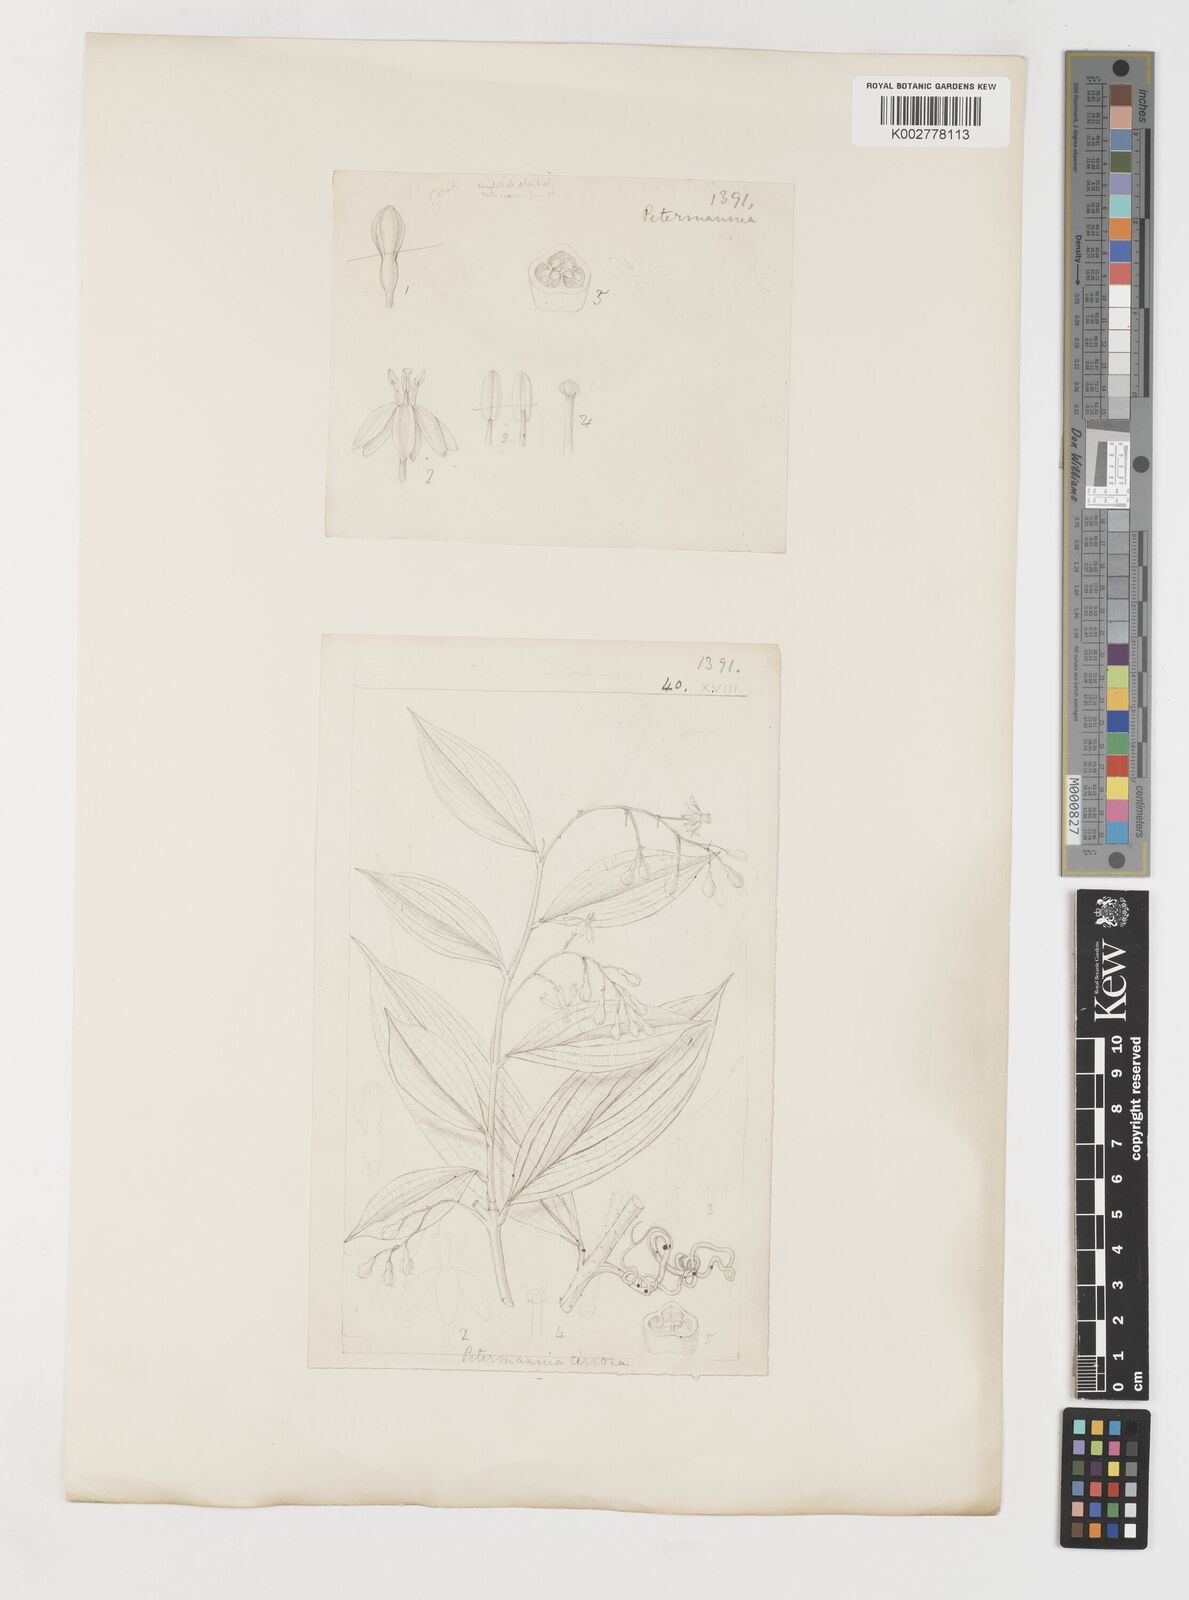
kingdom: Plantae
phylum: Tracheophyta
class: Liliopsida
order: Liliales
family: Petermanniaceae
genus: Petermannia
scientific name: Petermannia cirrosa
